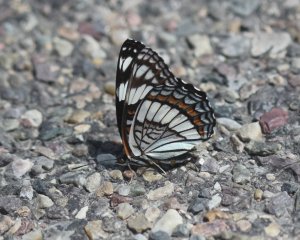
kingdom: Animalia
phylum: Arthropoda
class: Insecta
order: Lepidoptera
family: Nymphalidae
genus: Limenitis
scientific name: Limenitis weidemeyerii
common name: Weidemeyer's Admiral
